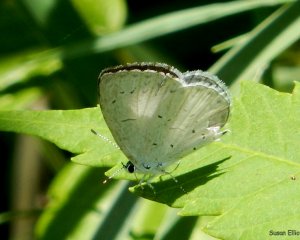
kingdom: Animalia
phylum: Arthropoda
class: Insecta
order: Lepidoptera
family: Lycaenidae
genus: Celastrina
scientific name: Celastrina lucia
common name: Northern Spring Azure
